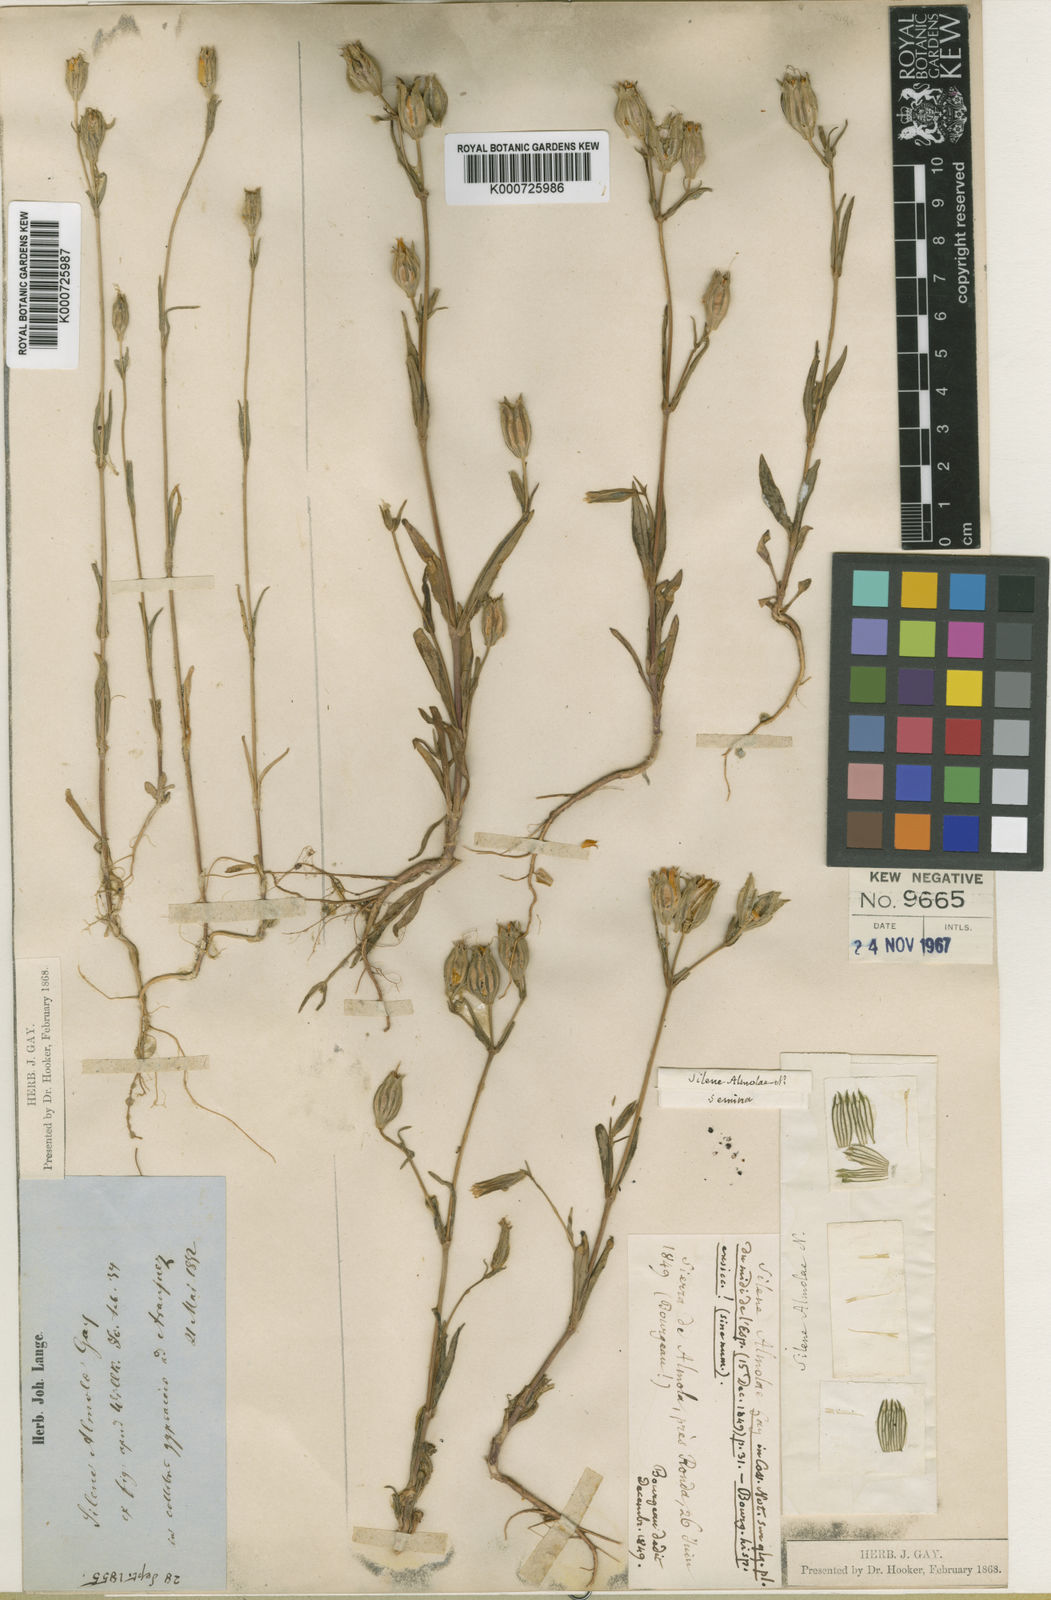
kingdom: Plantae
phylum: Tracheophyta
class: Magnoliopsida
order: Caryophyllales
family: Caryophyllaceae
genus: Silene
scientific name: Silene almolae
